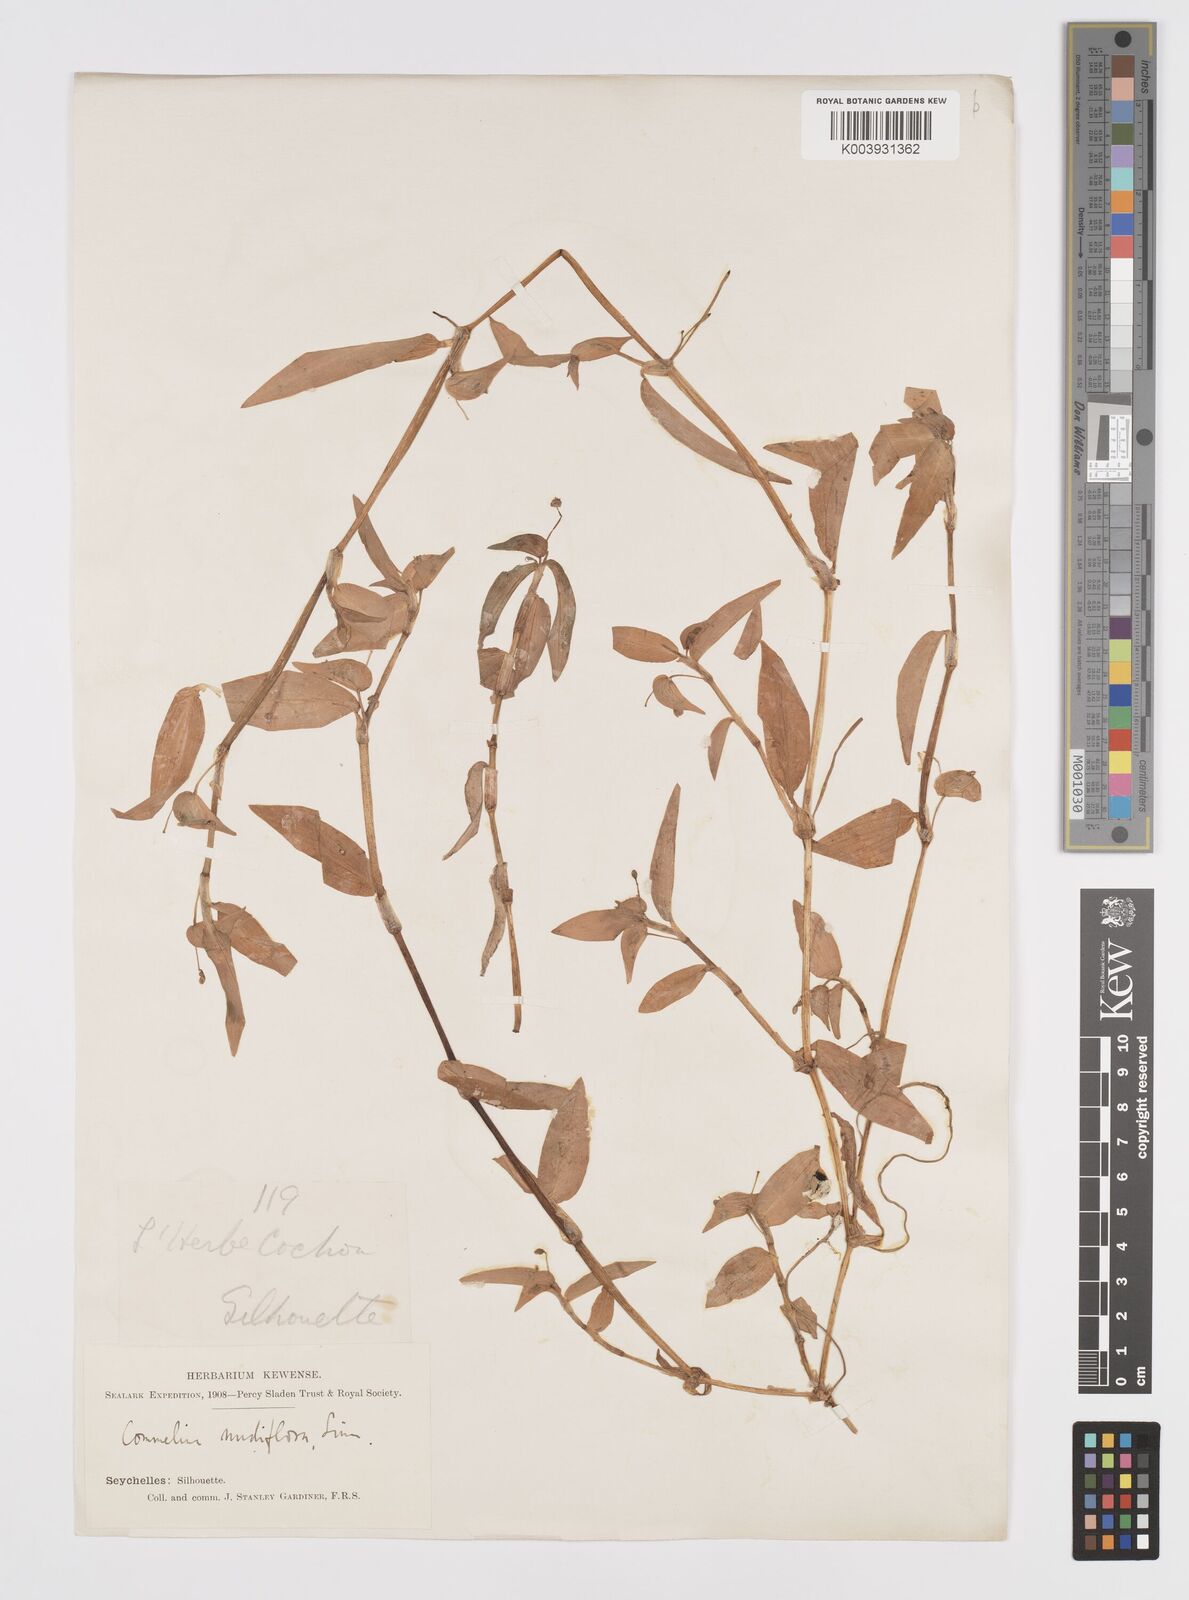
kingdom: Plantae
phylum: Tracheophyta
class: Liliopsida
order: Commelinales
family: Commelinaceae
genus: Murdannia
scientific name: Murdannia nudiflora
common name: Nakedstem dewflower
